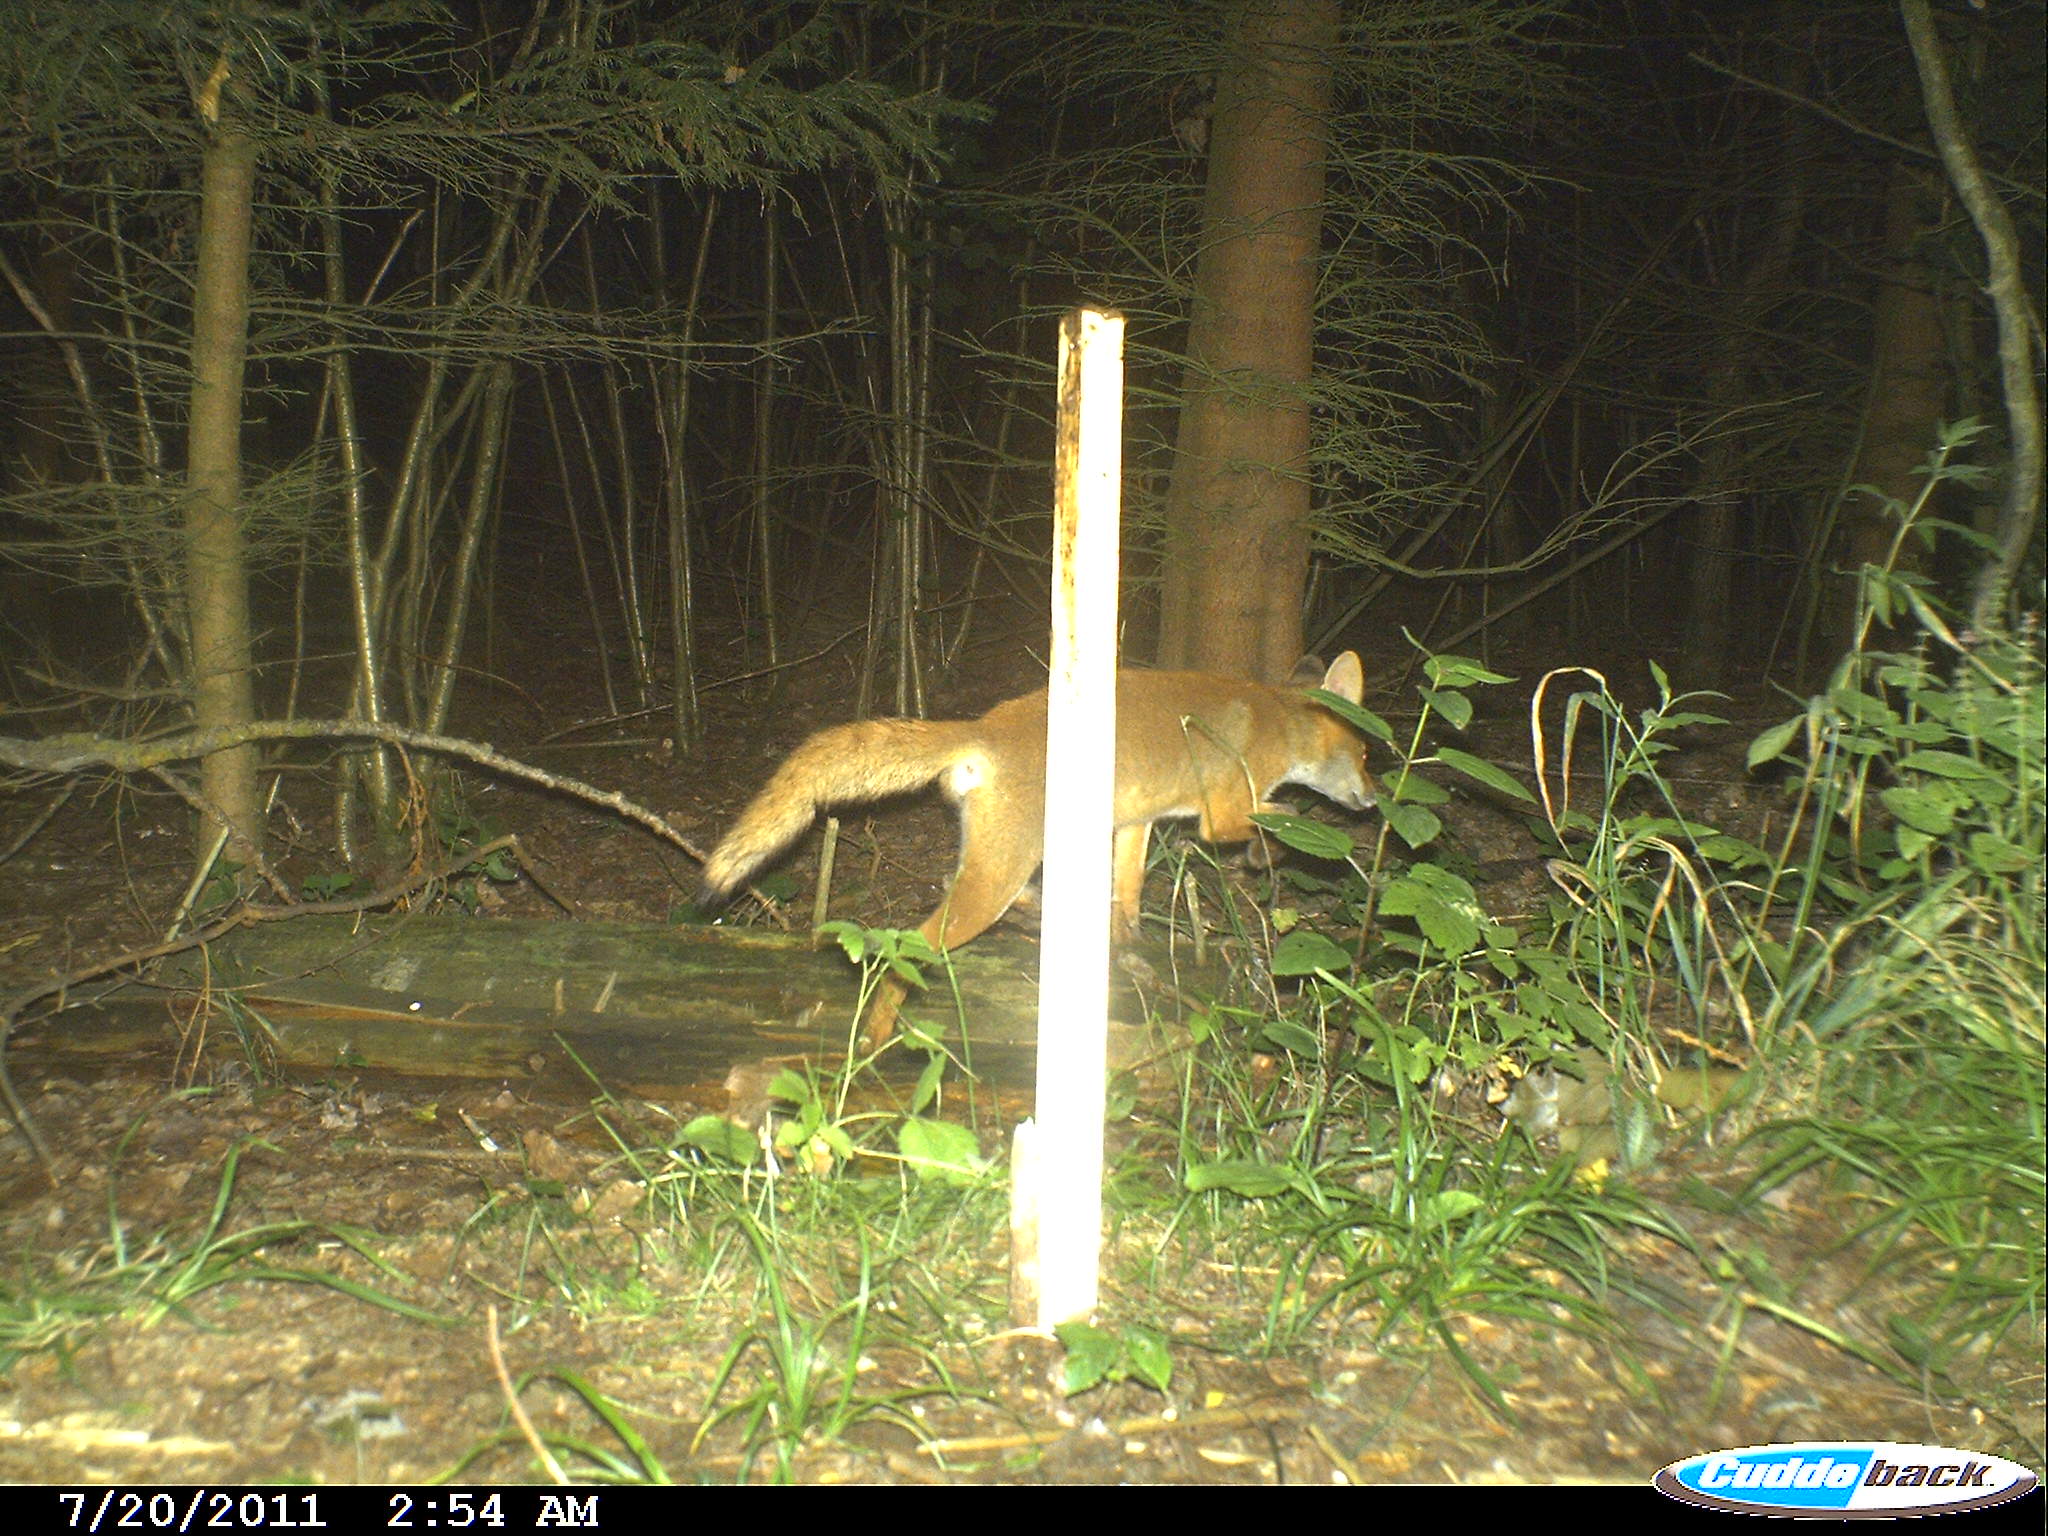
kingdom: Animalia
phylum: Chordata
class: Mammalia
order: Carnivora
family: Canidae
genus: Vulpes
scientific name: Vulpes vulpes
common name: Red fox
